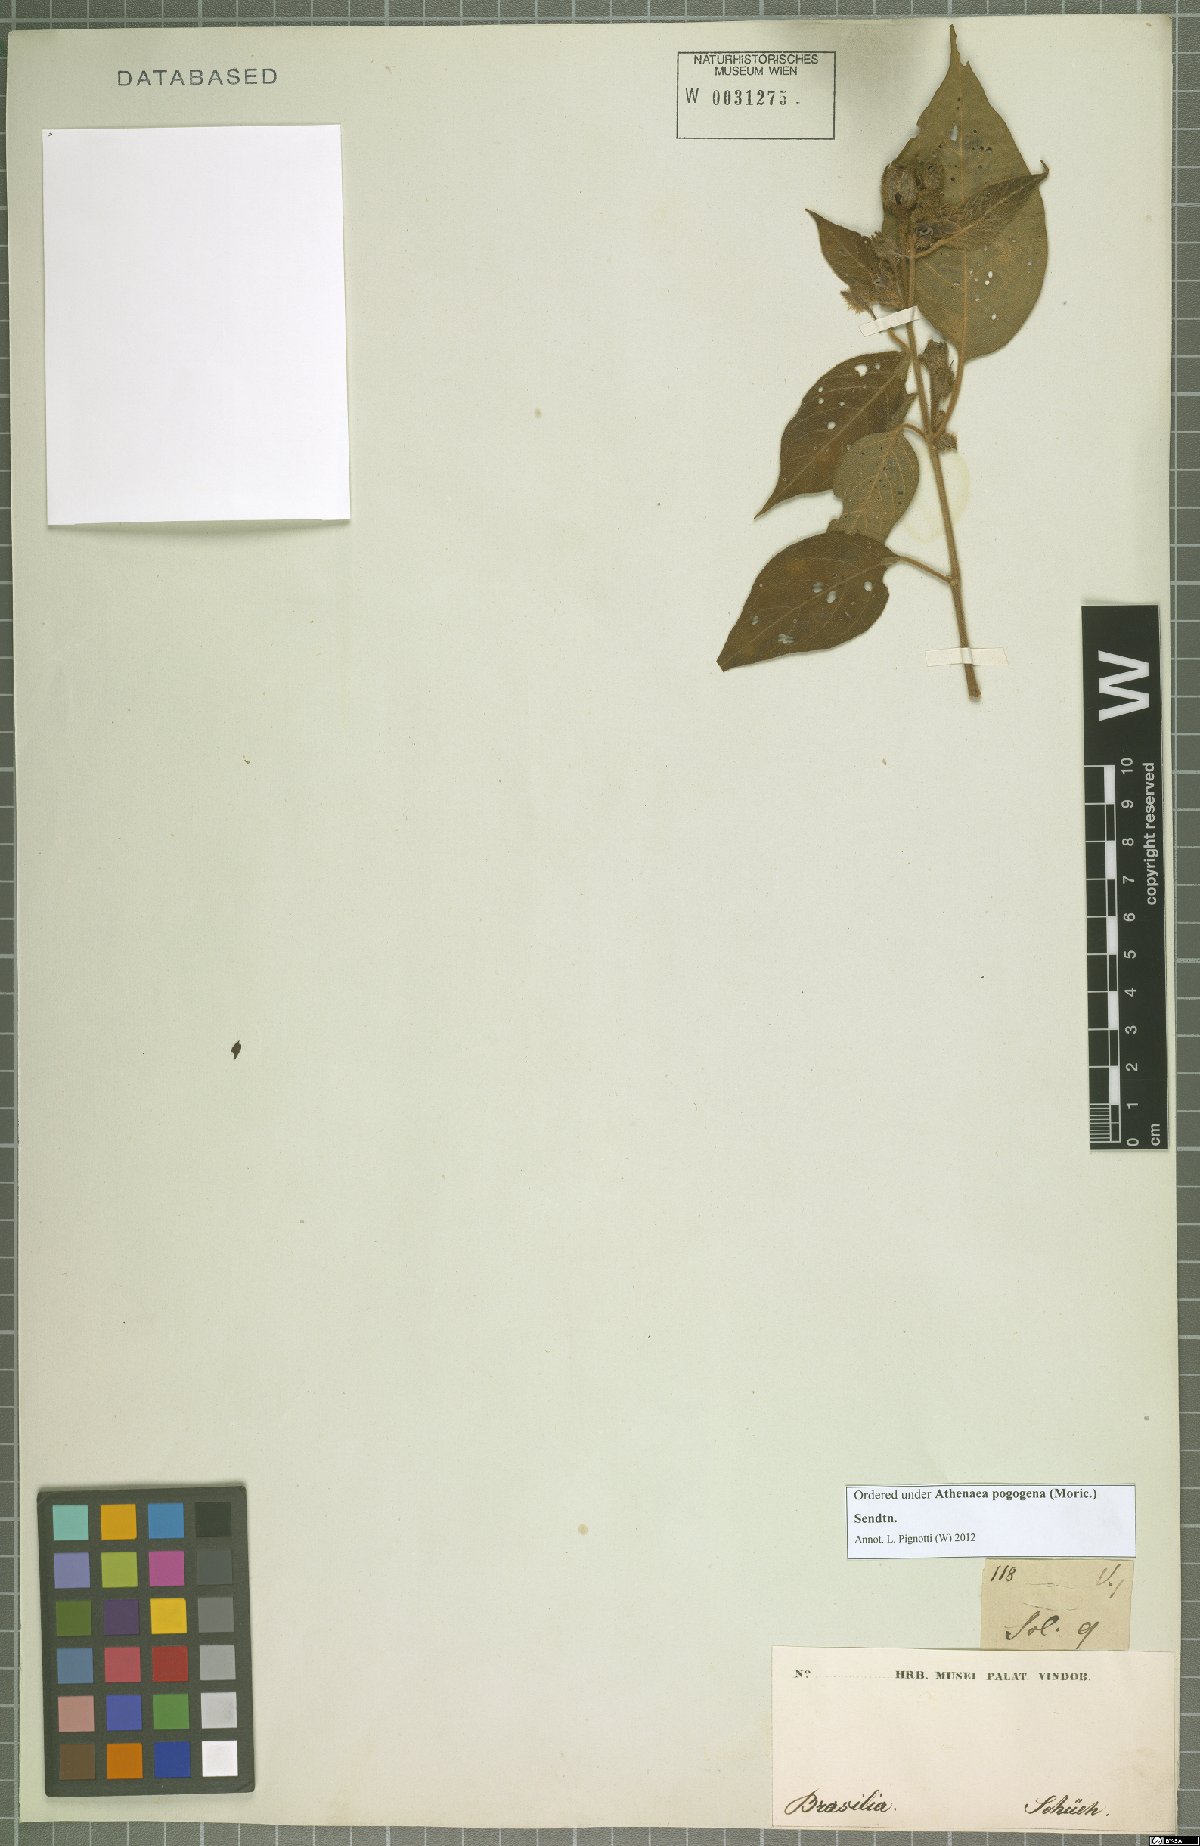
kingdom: Plantae
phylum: Tracheophyta
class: Magnoliopsida
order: Solanales
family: Solanaceae
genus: Athenaea
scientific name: Athenaea pogogena
